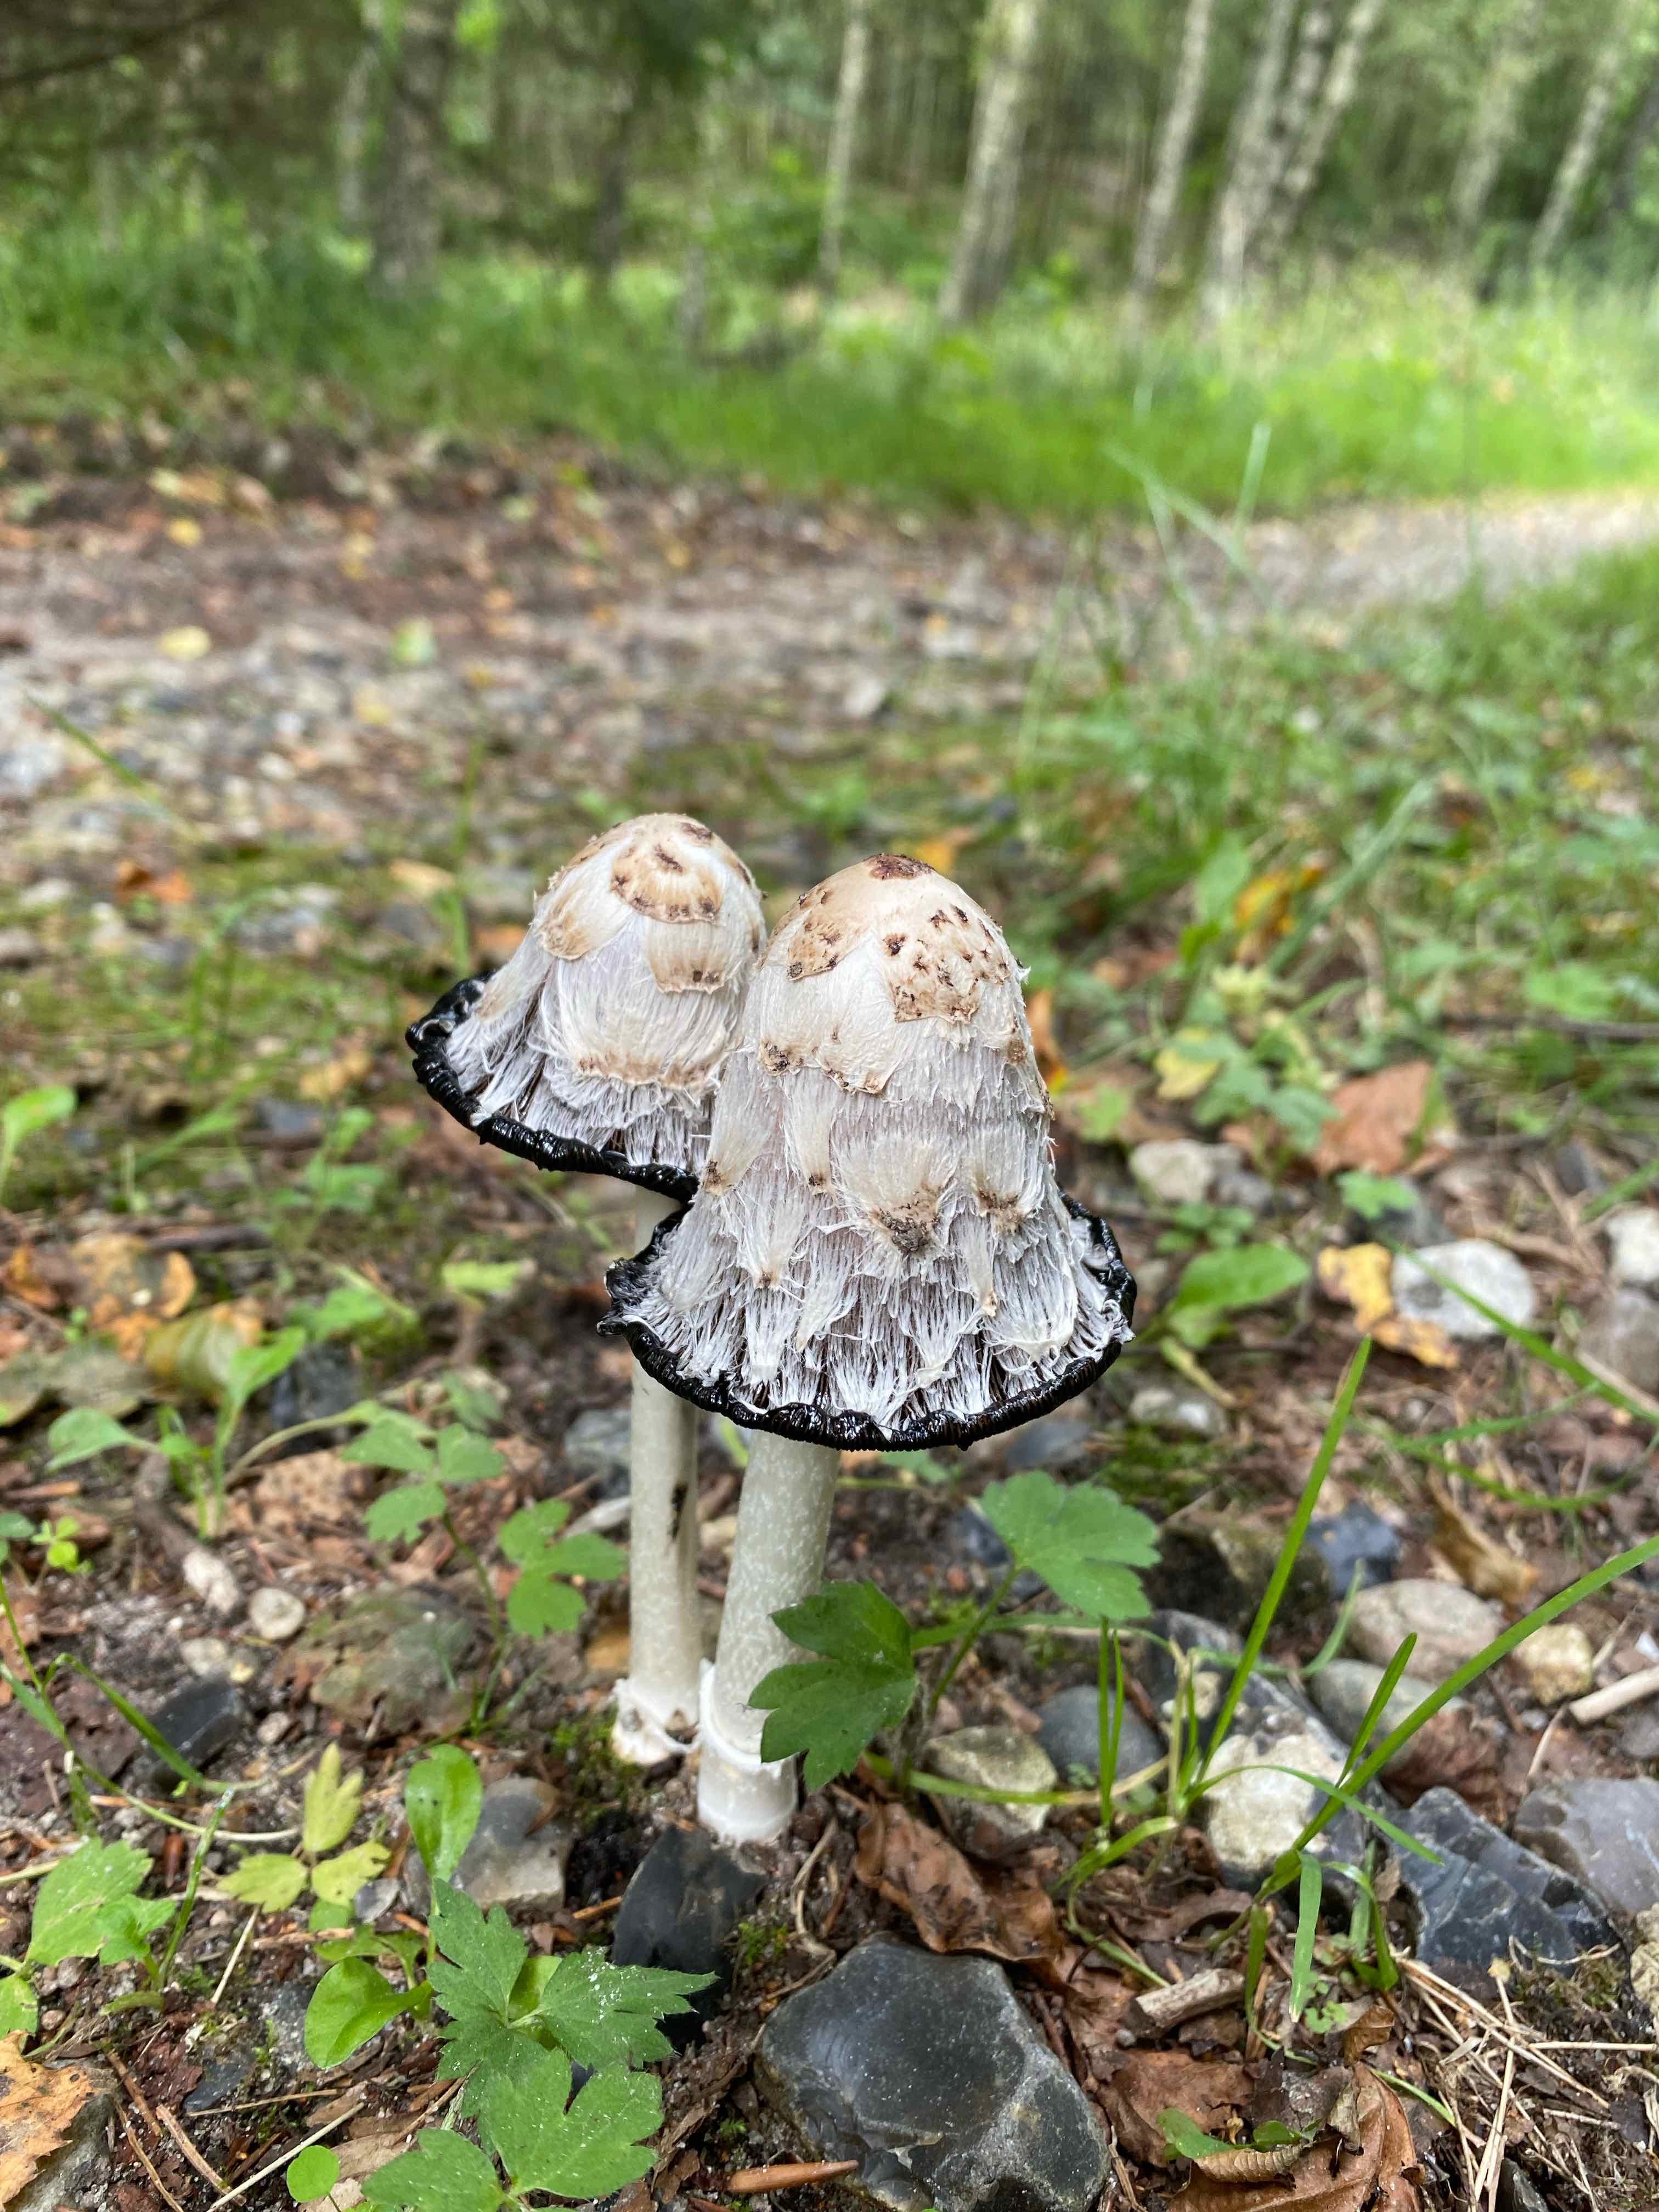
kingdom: Fungi
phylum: Basidiomycota
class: Agaricomycetes
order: Agaricales
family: Agaricaceae
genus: Coprinus
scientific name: Coprinus comatus
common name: stor parykhat
